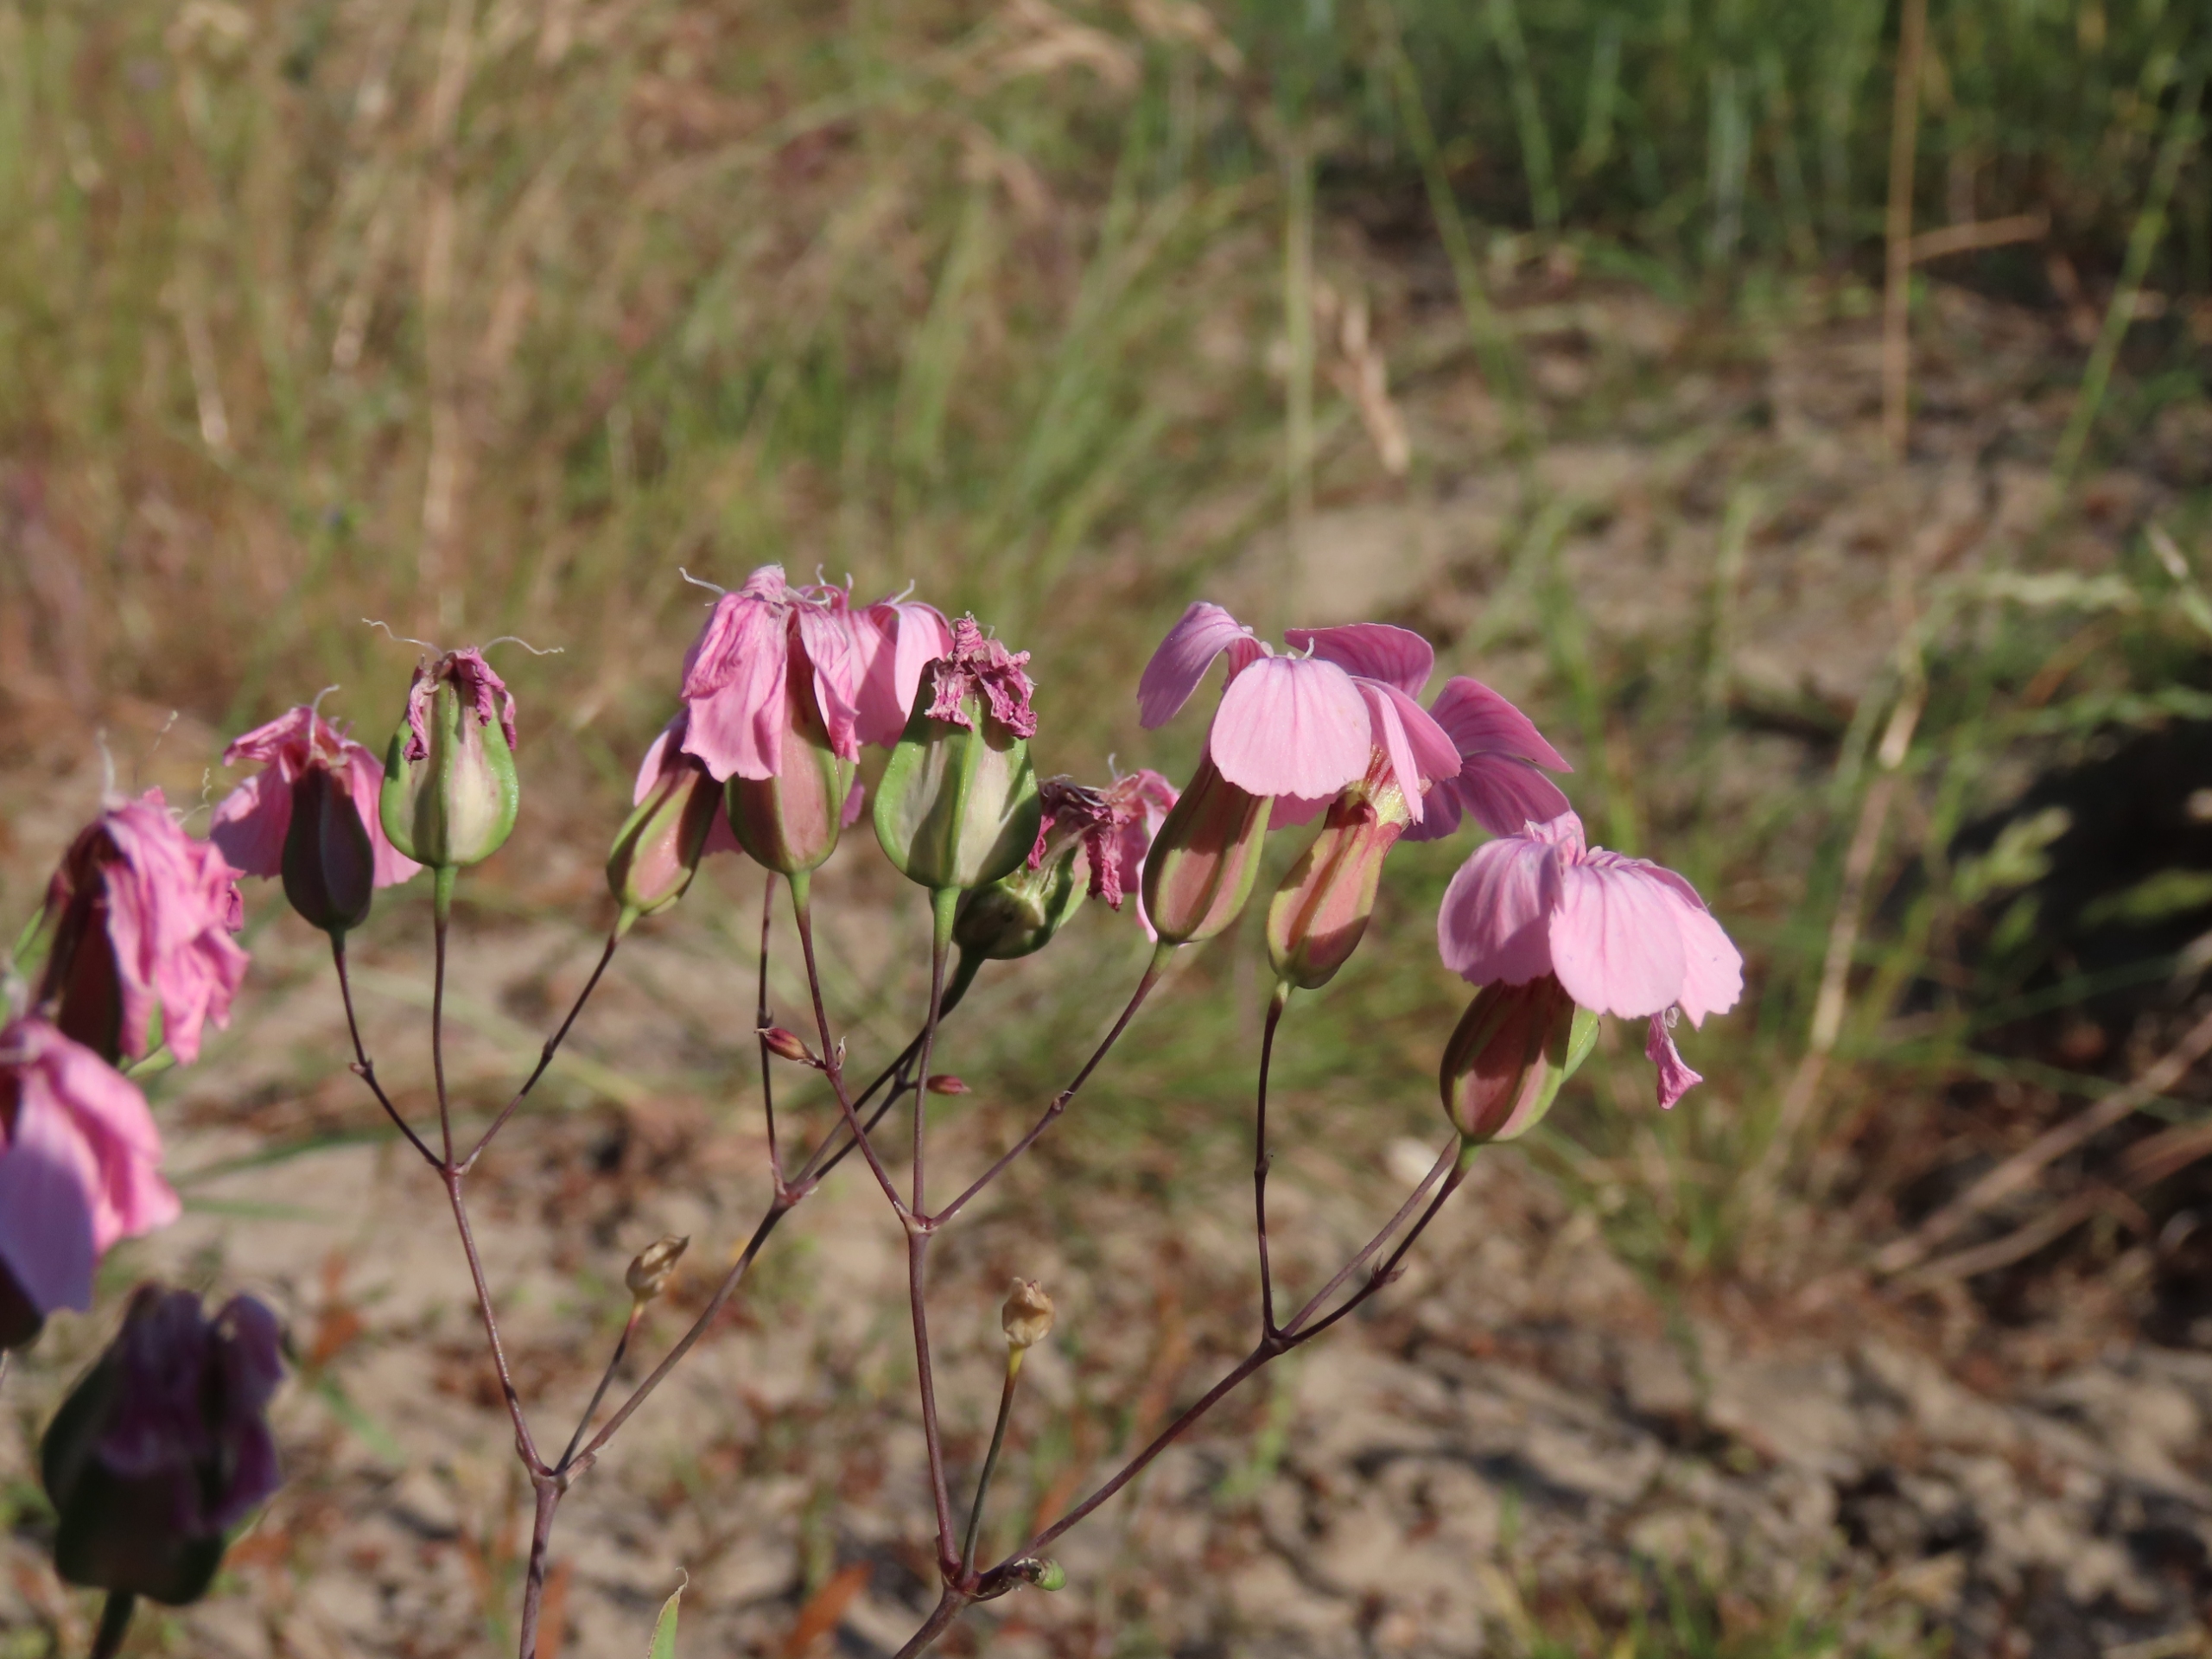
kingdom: Plantae
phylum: Tracheophyta
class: Magnoliopsida
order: Caryophyllales
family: Caryophyllaceae
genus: Gypsophila
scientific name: Gypsophila vaccaria
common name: Konellike
